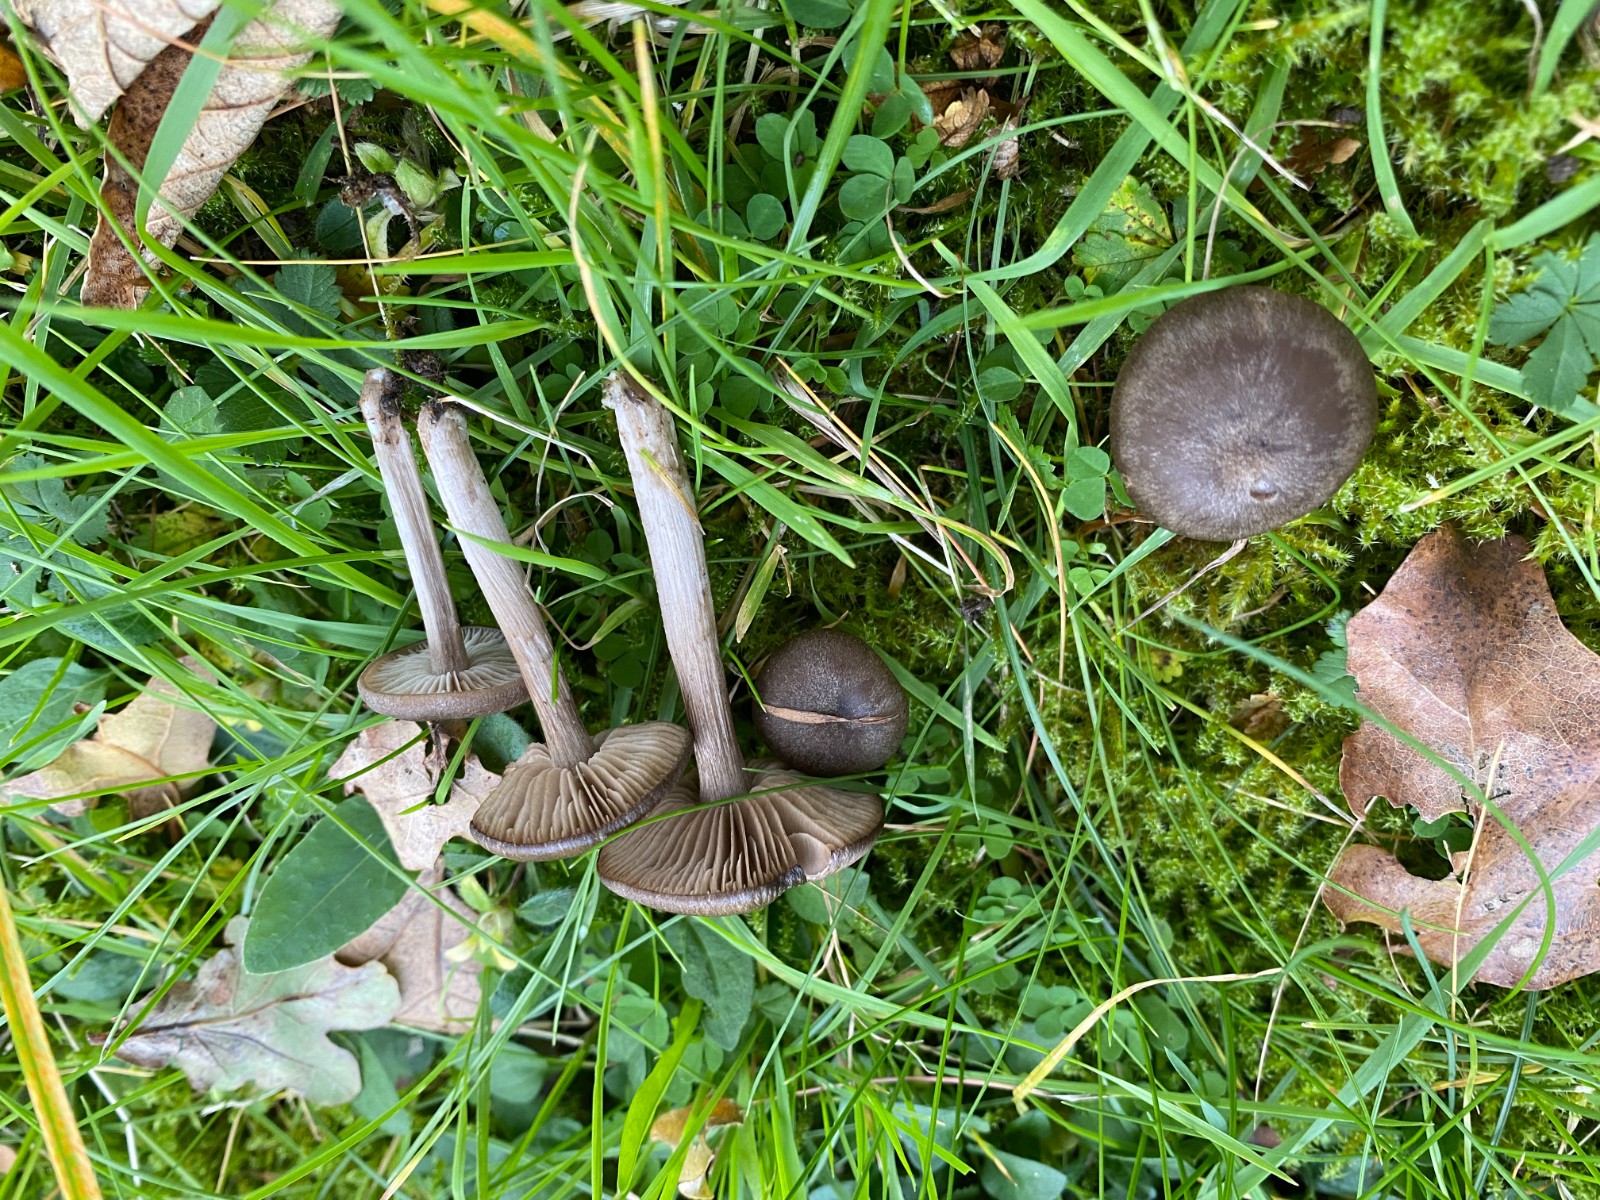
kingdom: Fungi
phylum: Basidiomycota
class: Agaricomycetes
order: Agaricales
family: Entolomataceae
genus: Entoloma
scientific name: Entoloma
